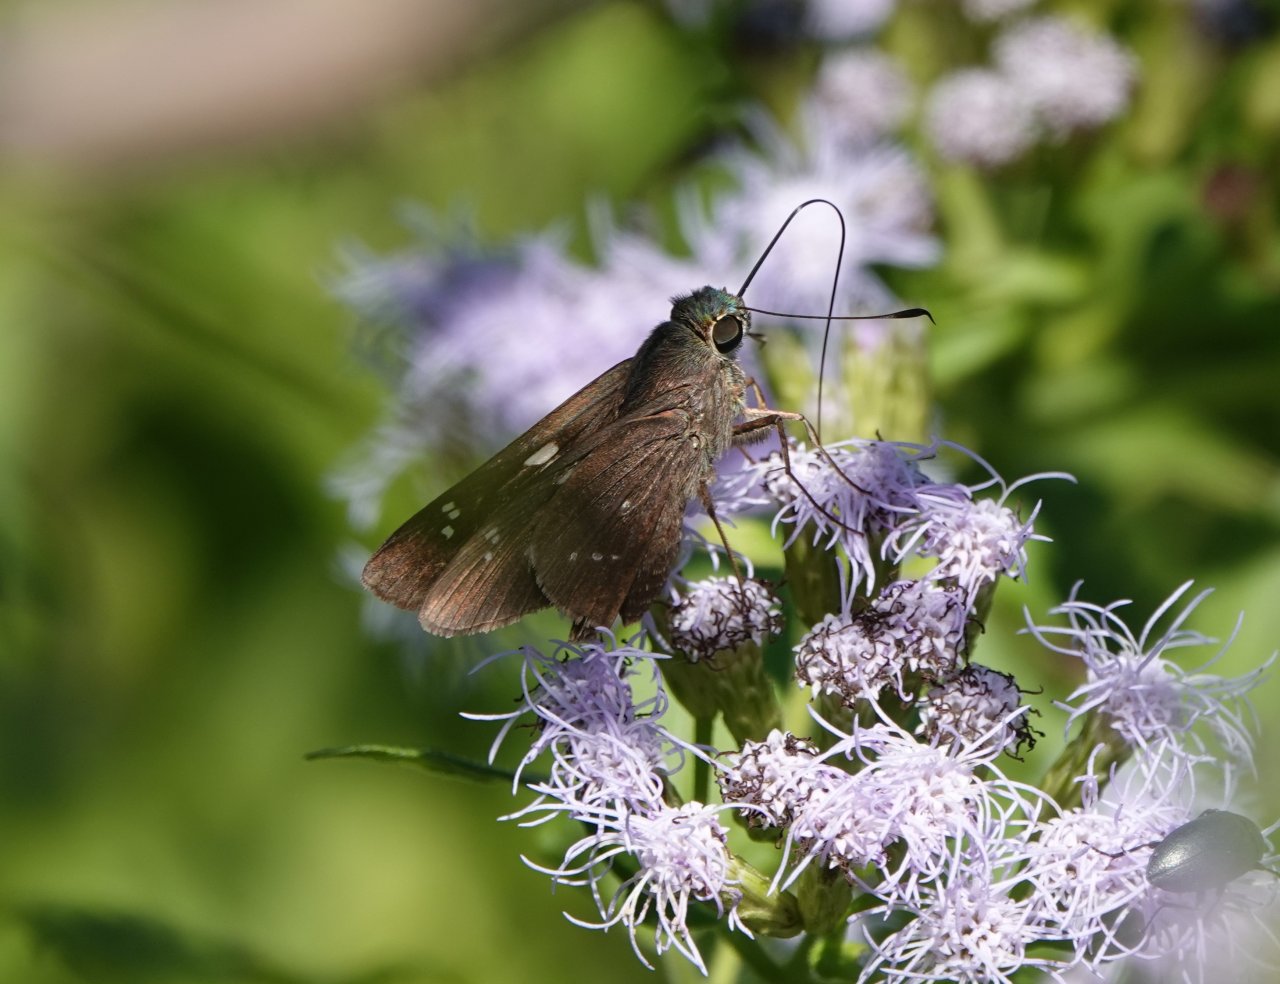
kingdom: Animalia
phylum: Arthropoda
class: Insecta
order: Lepidoptera
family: Hesperiidae
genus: Rhinthon
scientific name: Rhinthon cubana
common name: Osca Skipper
